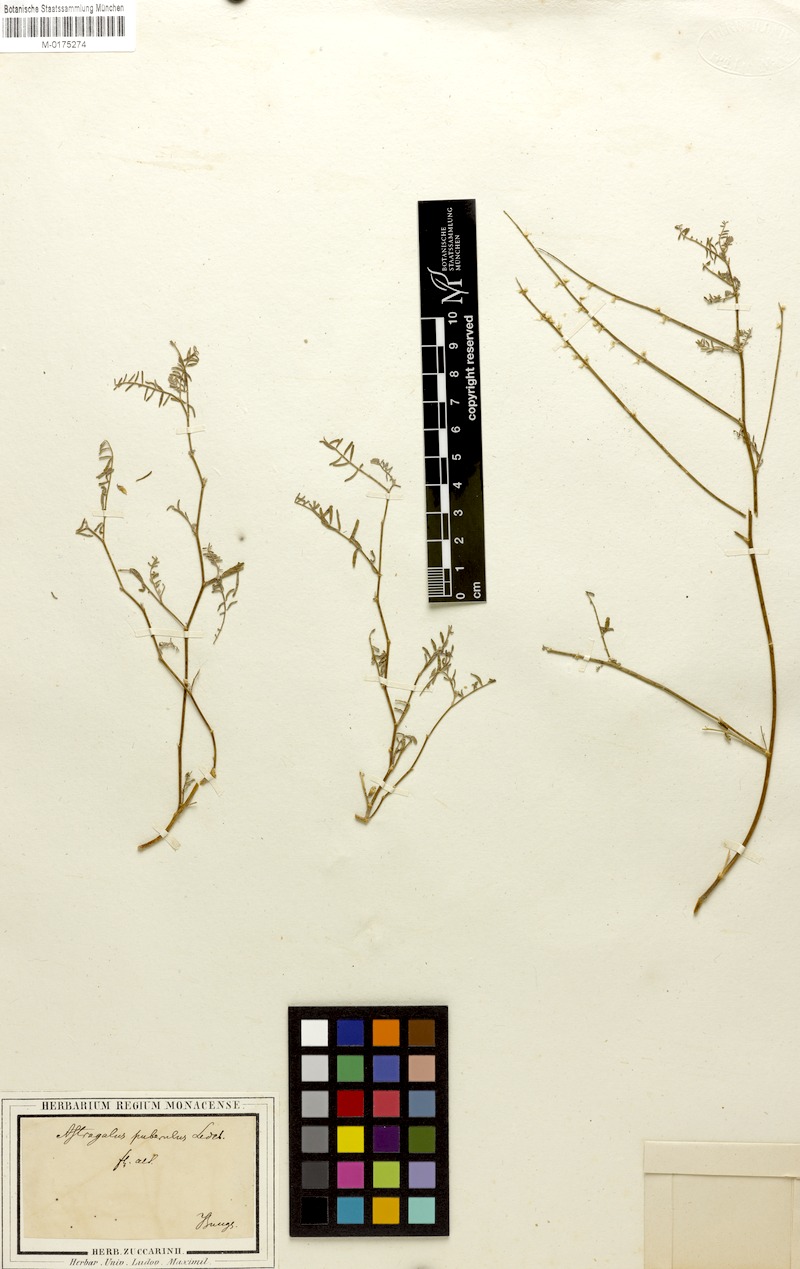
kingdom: Plantae
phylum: Tracheophyta
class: Magnoliopsida
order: Fabales
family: Fabaceae
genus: Astragalus
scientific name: Astragalus puberulus
